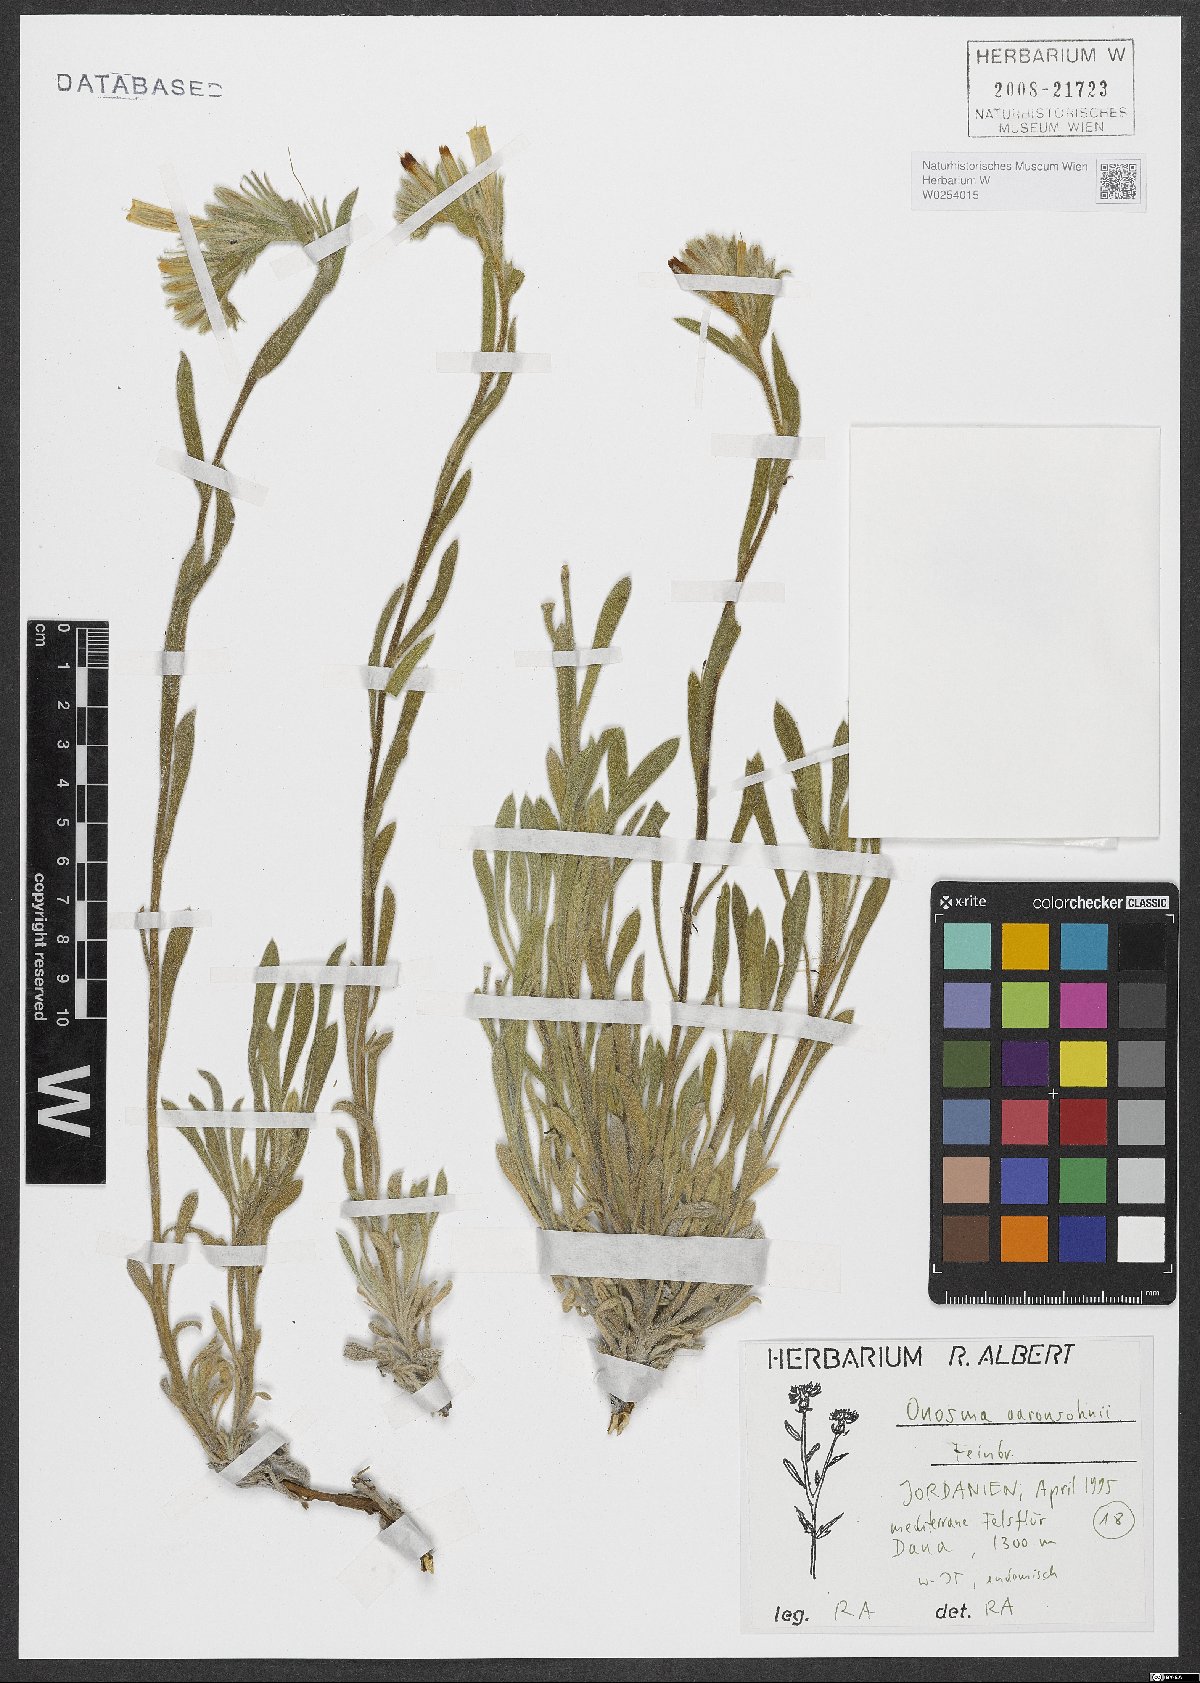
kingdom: Plantae
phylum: Tracheophyta
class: Magnoliopsida
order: Boraginales
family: Boraginaceae
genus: Onosma
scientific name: Onosma aaronsohnii
